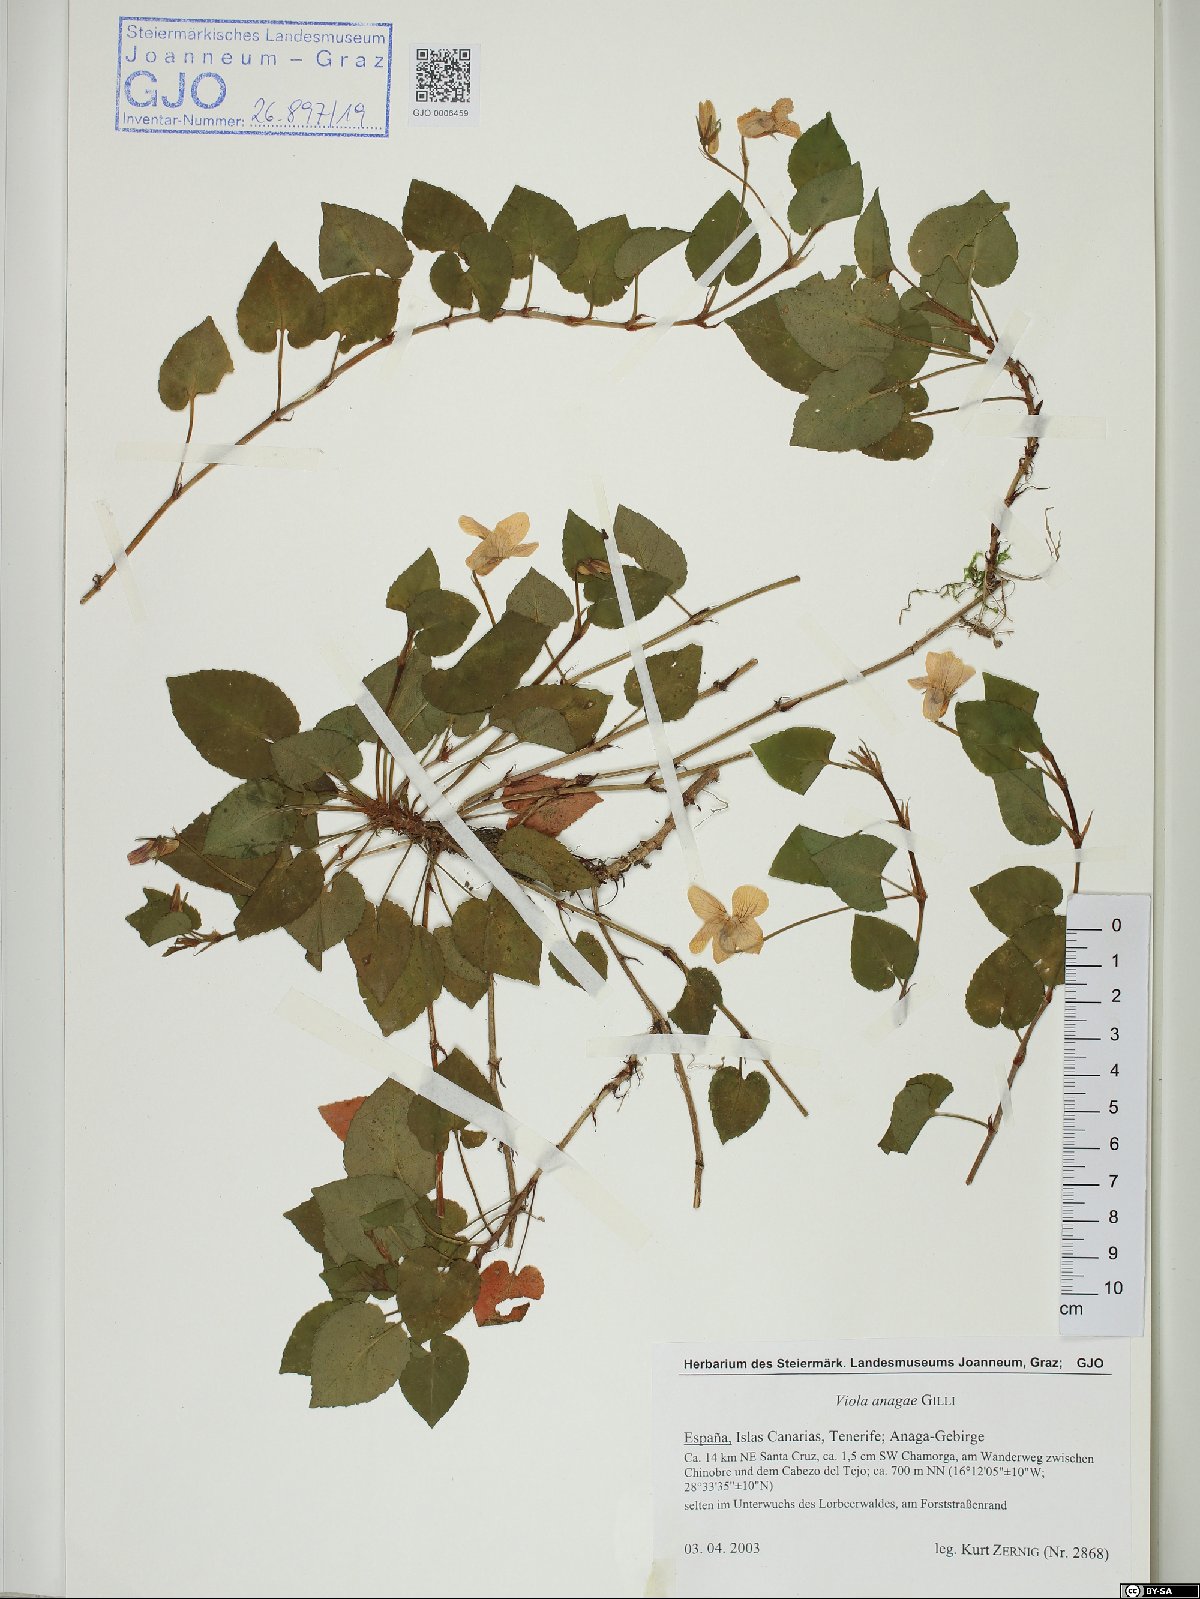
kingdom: Plantae
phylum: Tracheophyta
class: Magnoliopsida
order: Malpighiales
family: Violaceae
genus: Viola
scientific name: Viola anagae
